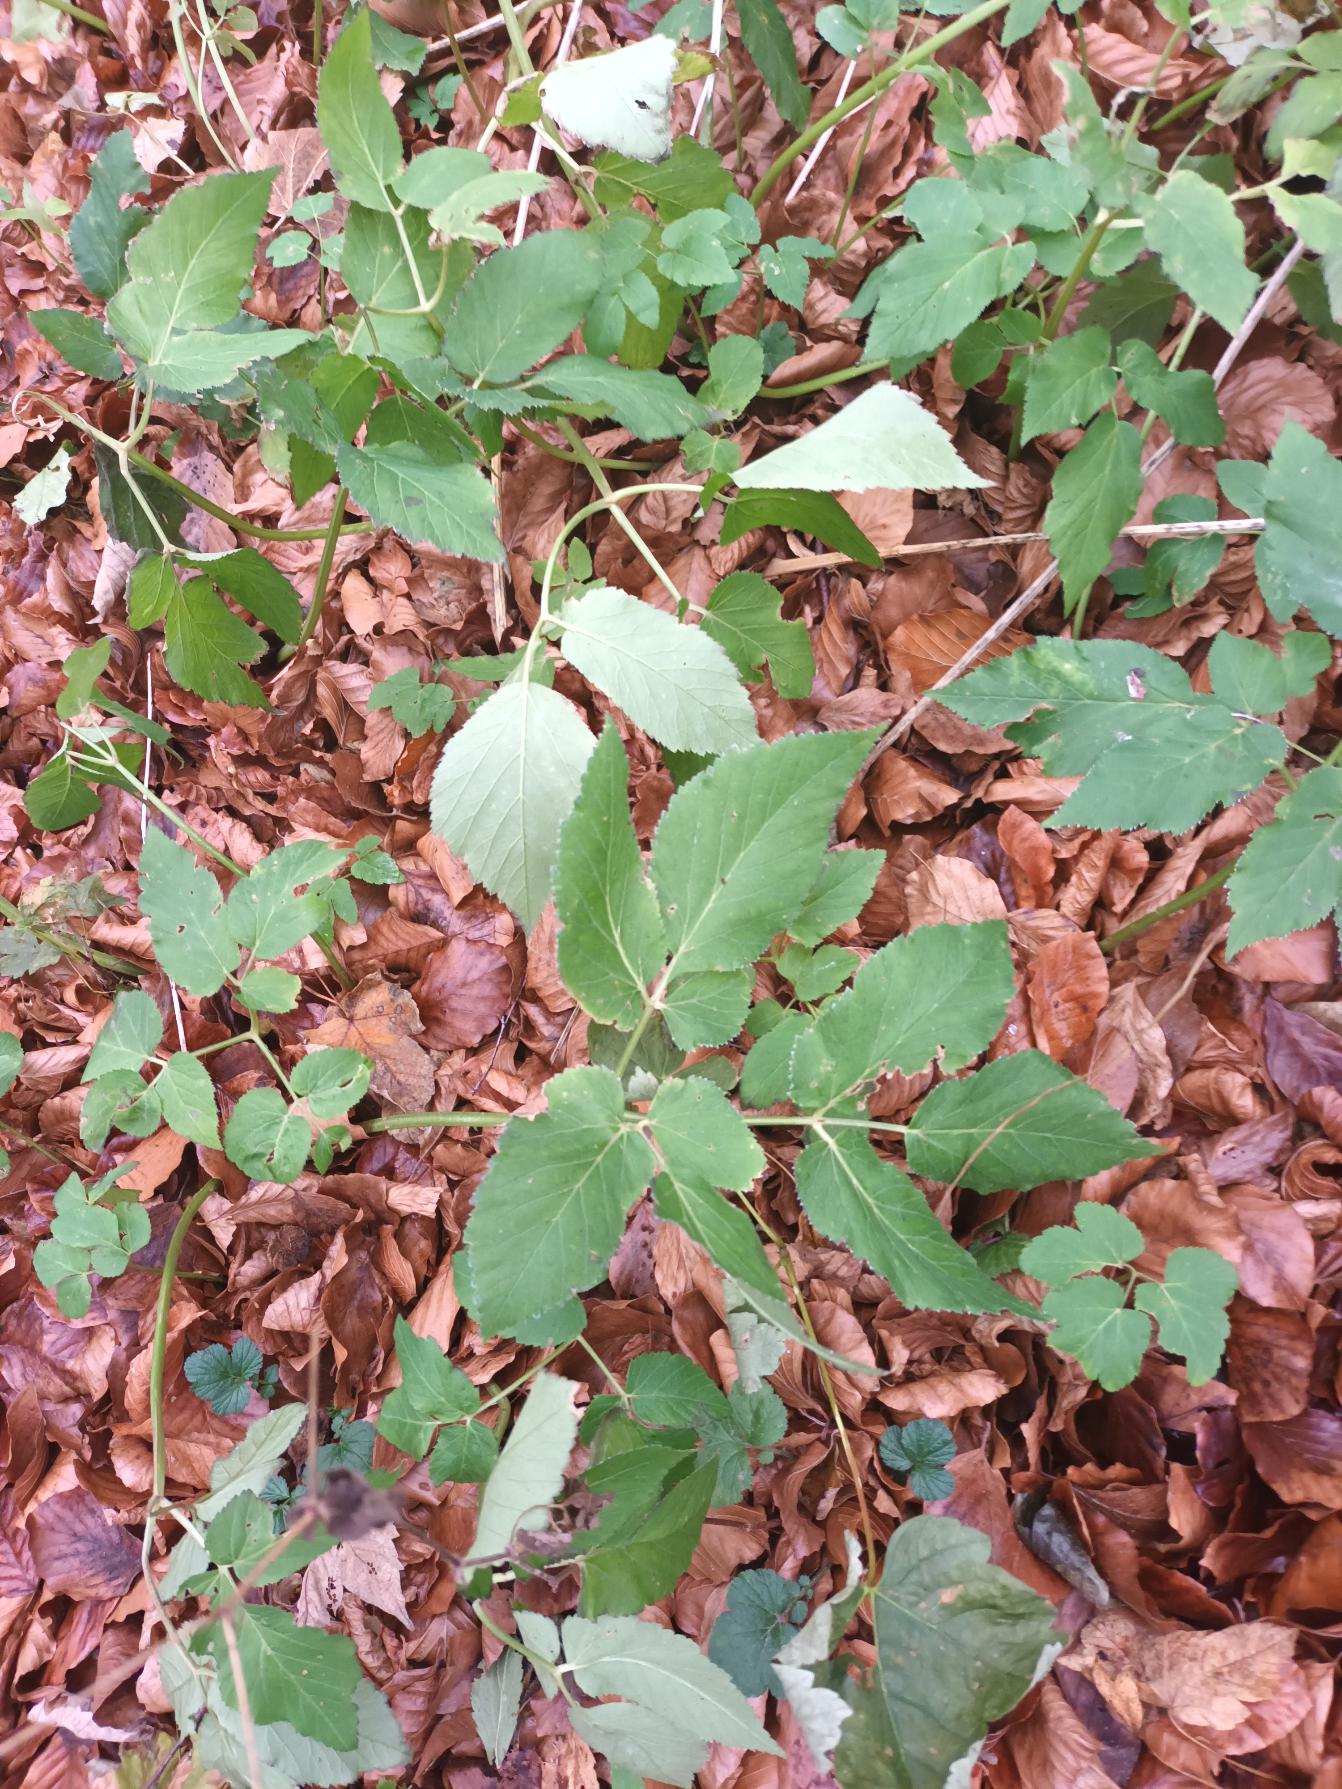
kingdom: Plantae
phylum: Tracheophyta
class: Magnoliopsida
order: Apiales
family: Apiaceae
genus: Aegopodium
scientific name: Aegopodium podagraria
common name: Skvalderkål
